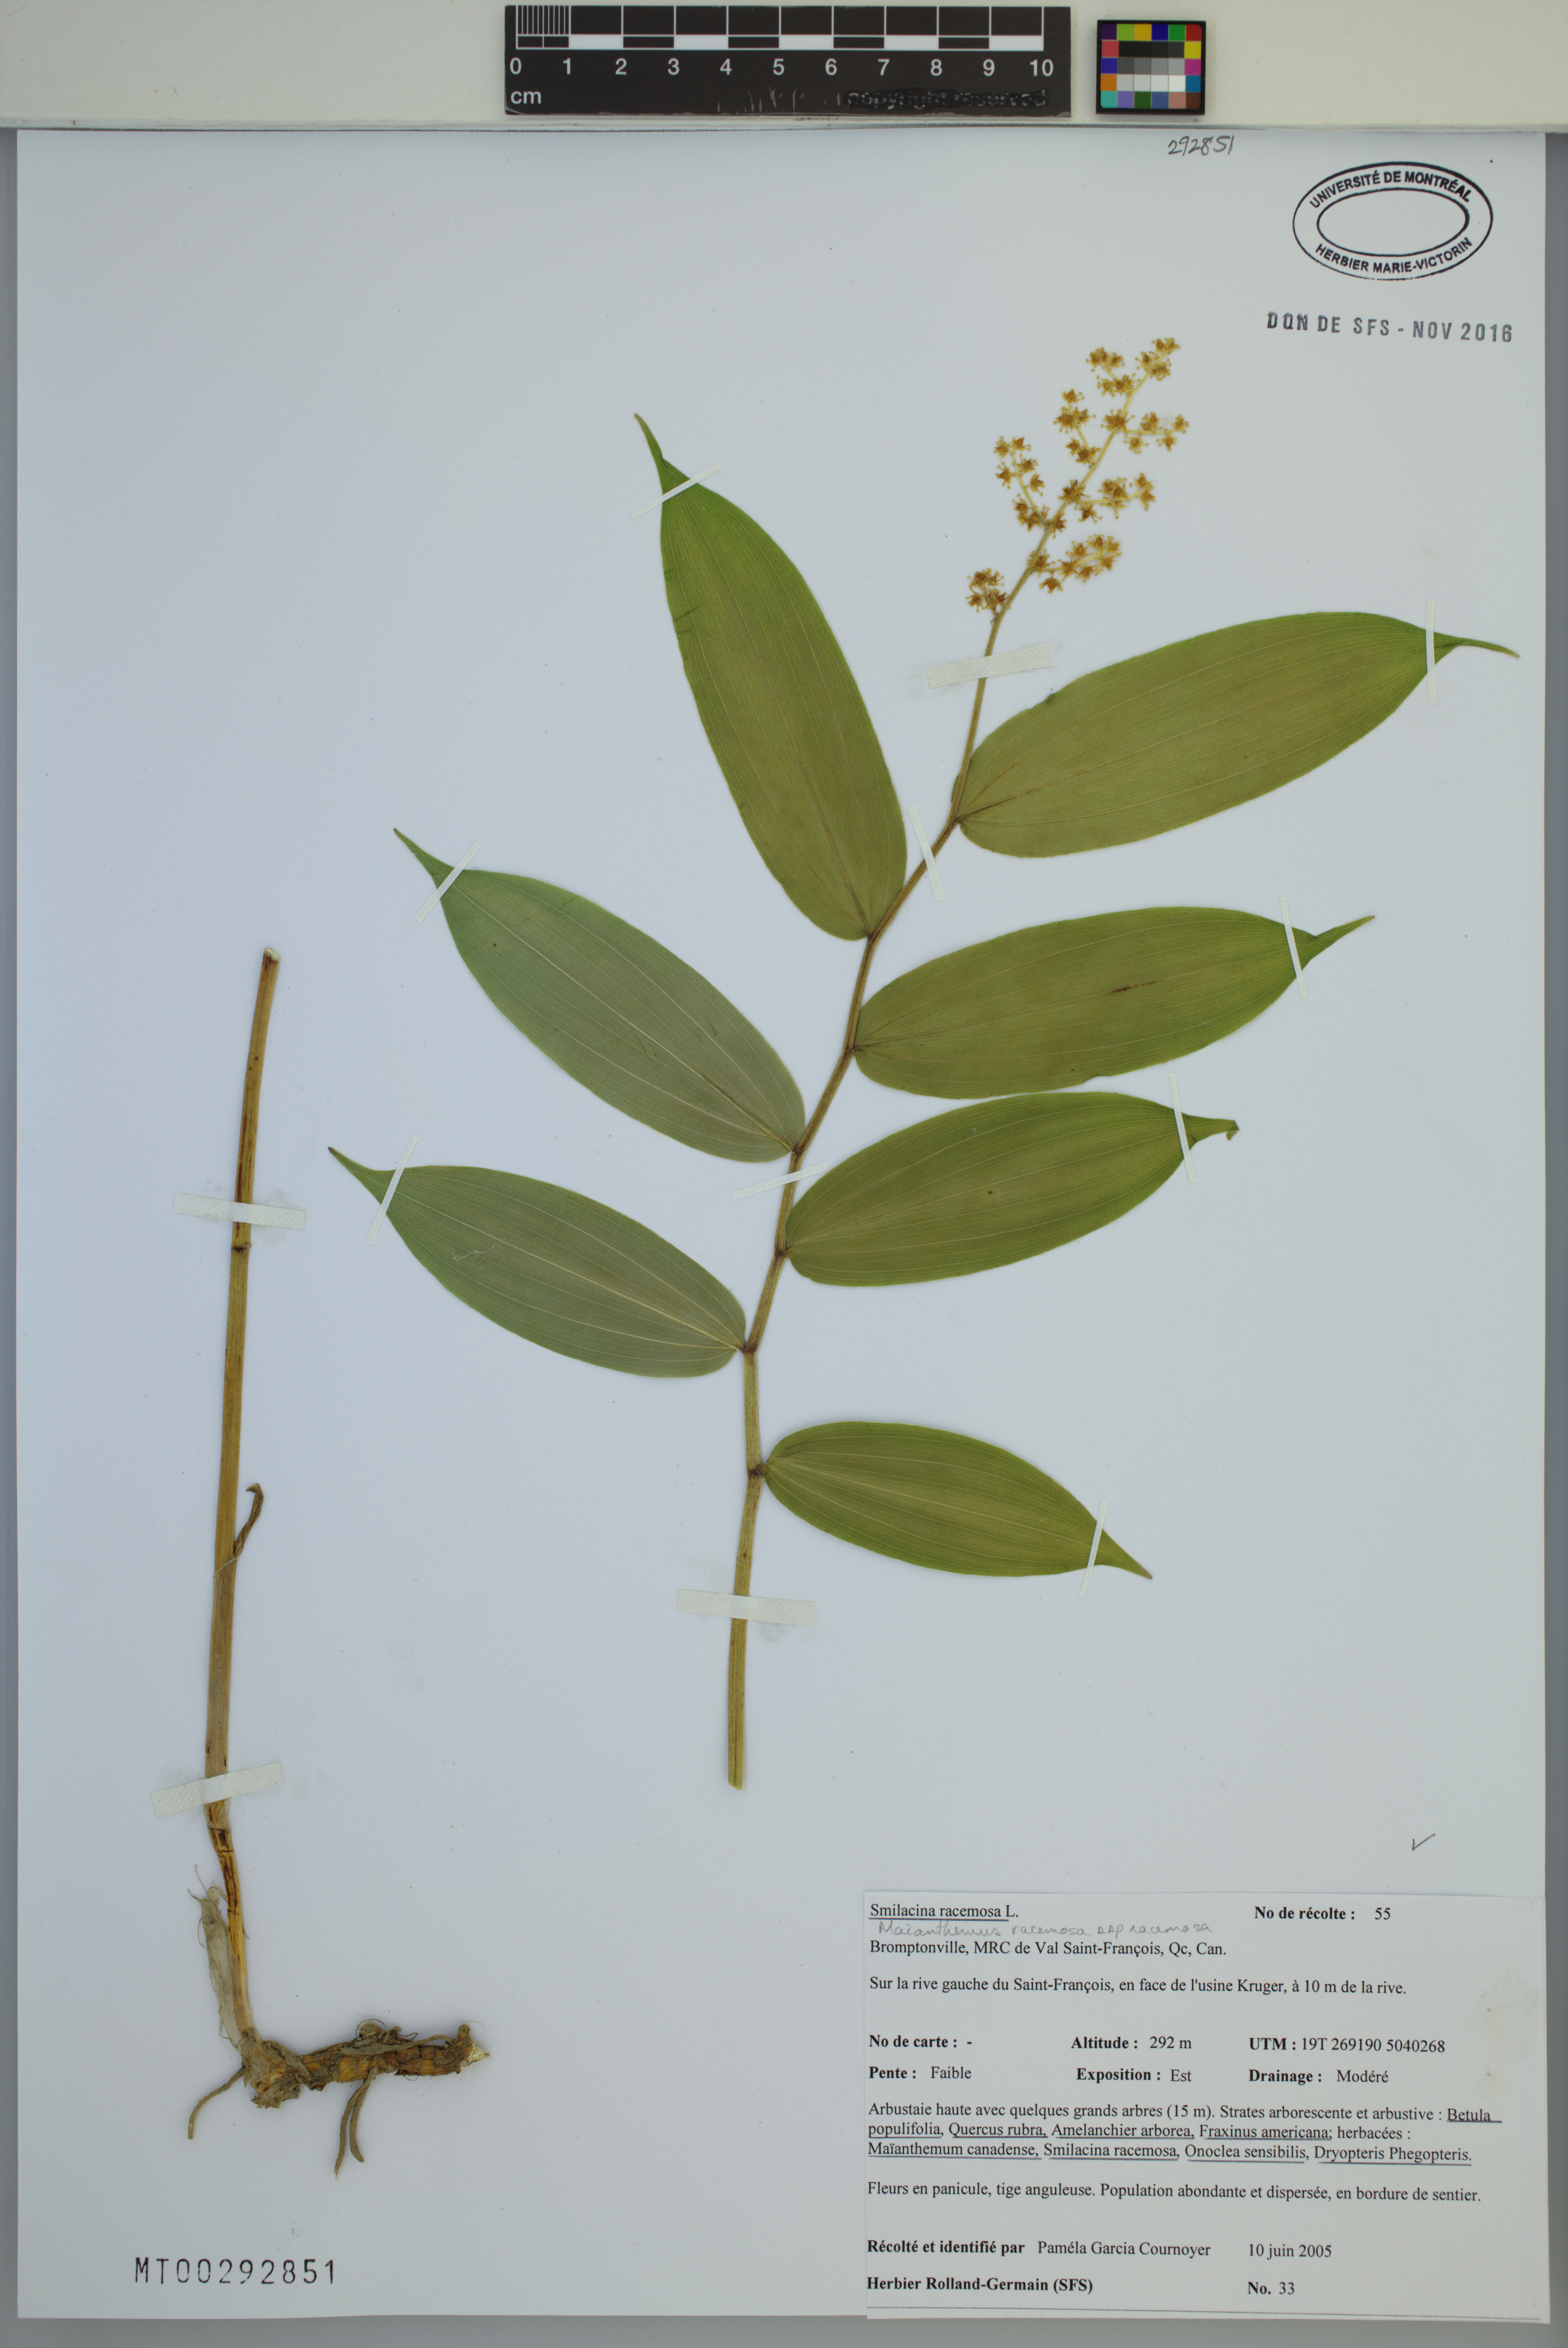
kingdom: Plantae
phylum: Tracheophyta
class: Liliopsida
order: Asparagales
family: Asparagaceae
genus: Maianthemum
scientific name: Maianthemum racemosum
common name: False spikenard
